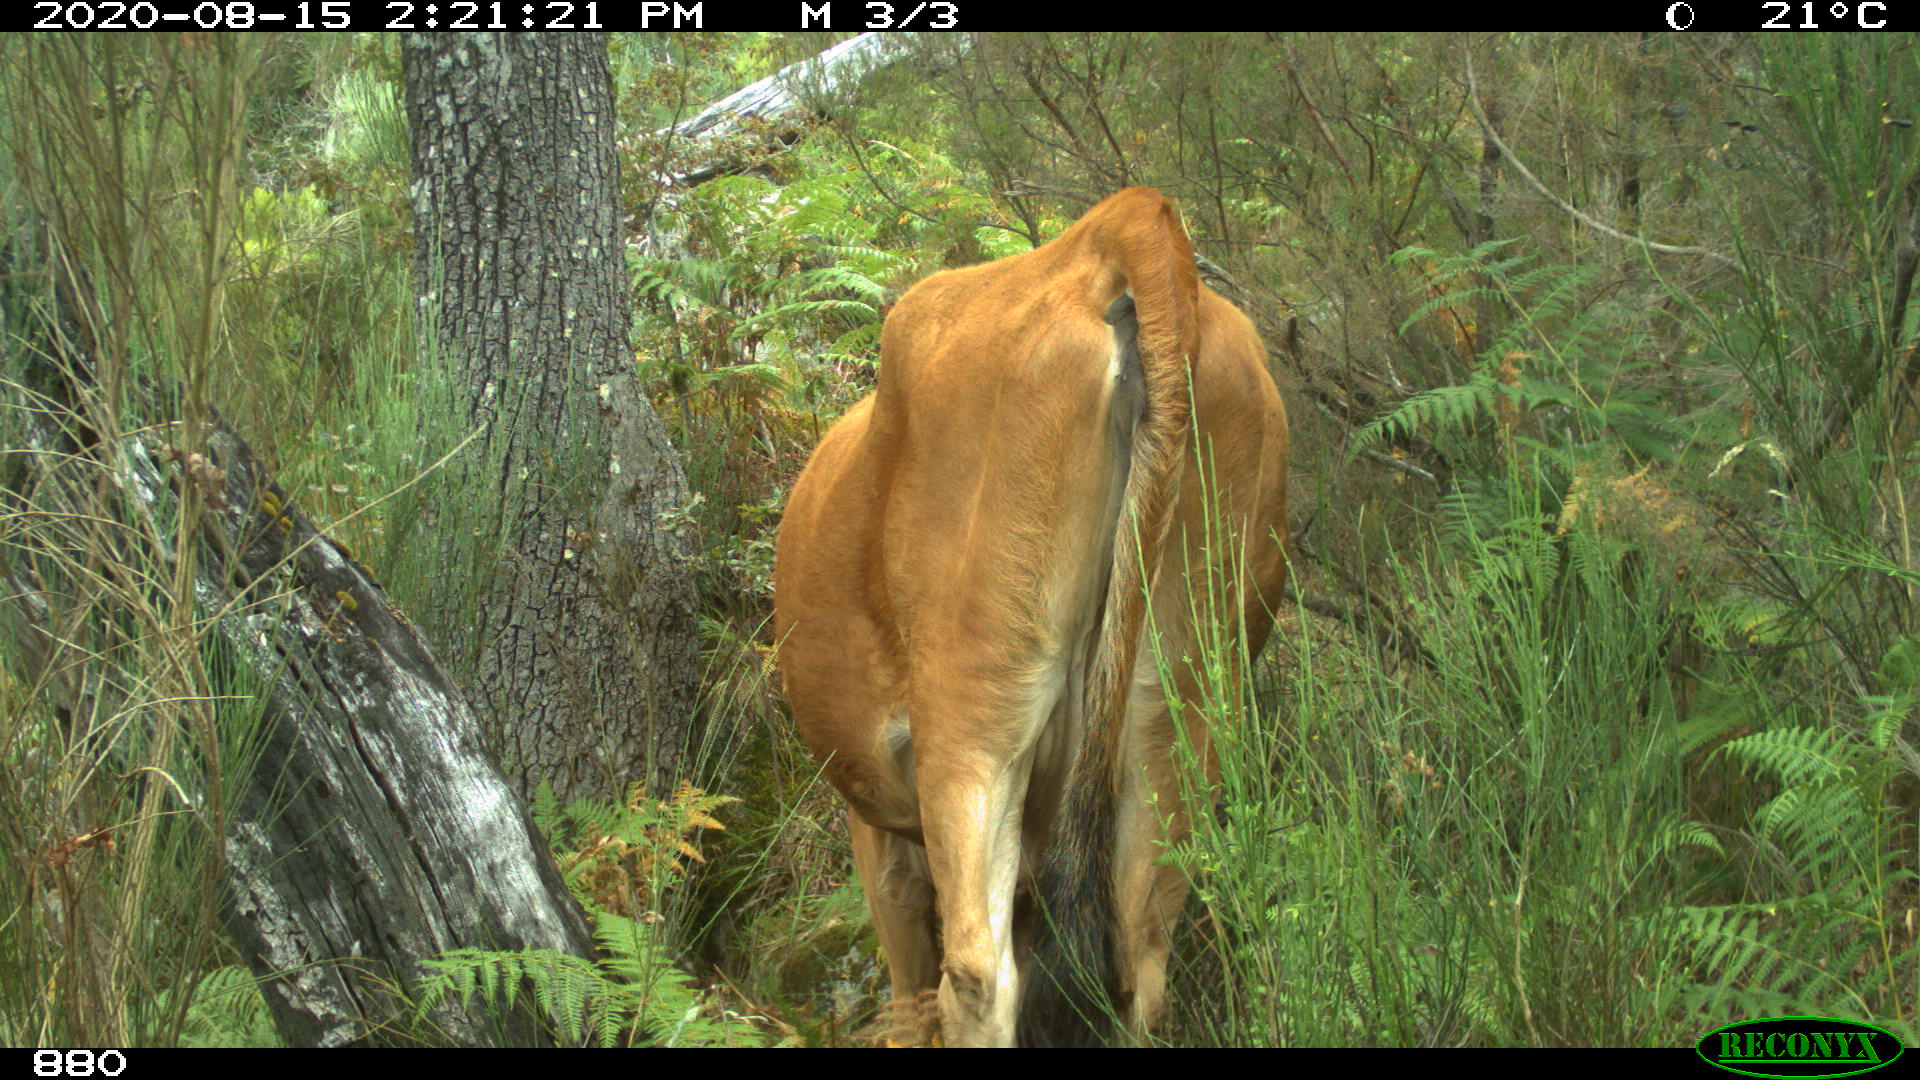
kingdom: Animalia
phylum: Chordata
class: Mammalia
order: Artiodactyla
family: Bovidae
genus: Bos
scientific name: Bos taurus
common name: Domesticated cattle
